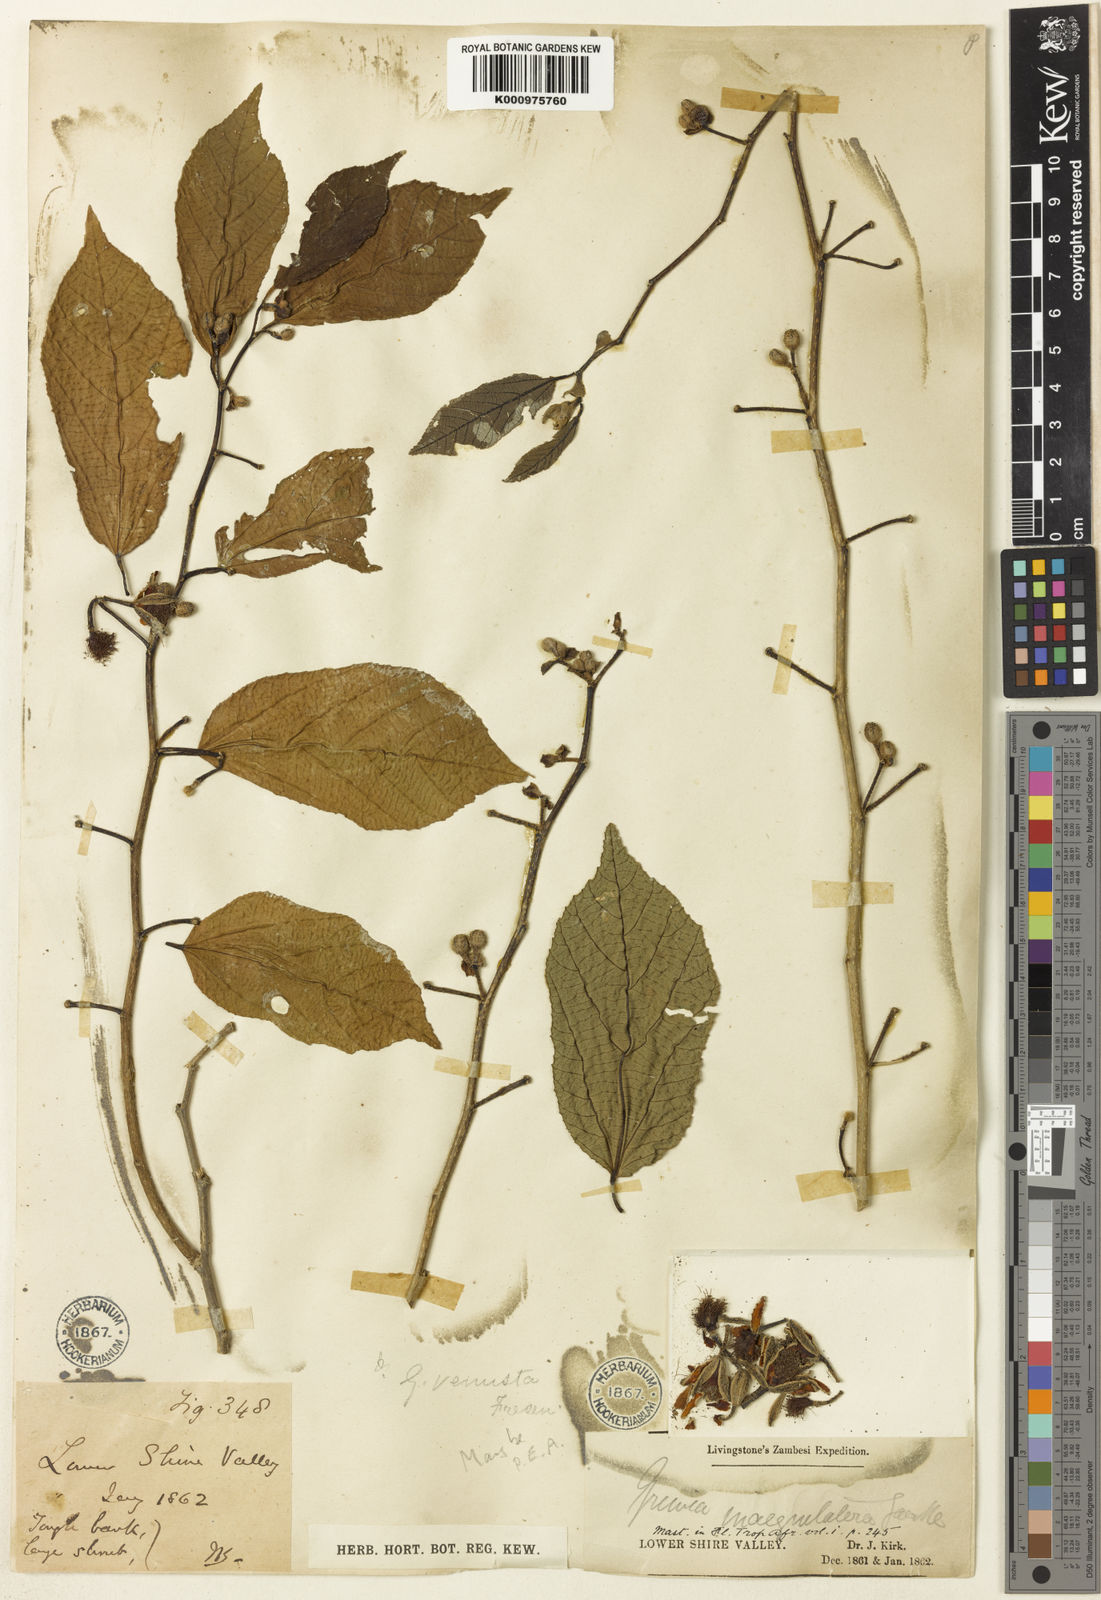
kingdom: Plantae
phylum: Tracheophyta
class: Magnoliopsida
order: Malvales
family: Malvaceae
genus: Grewia
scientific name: Grewia inaequilatera
